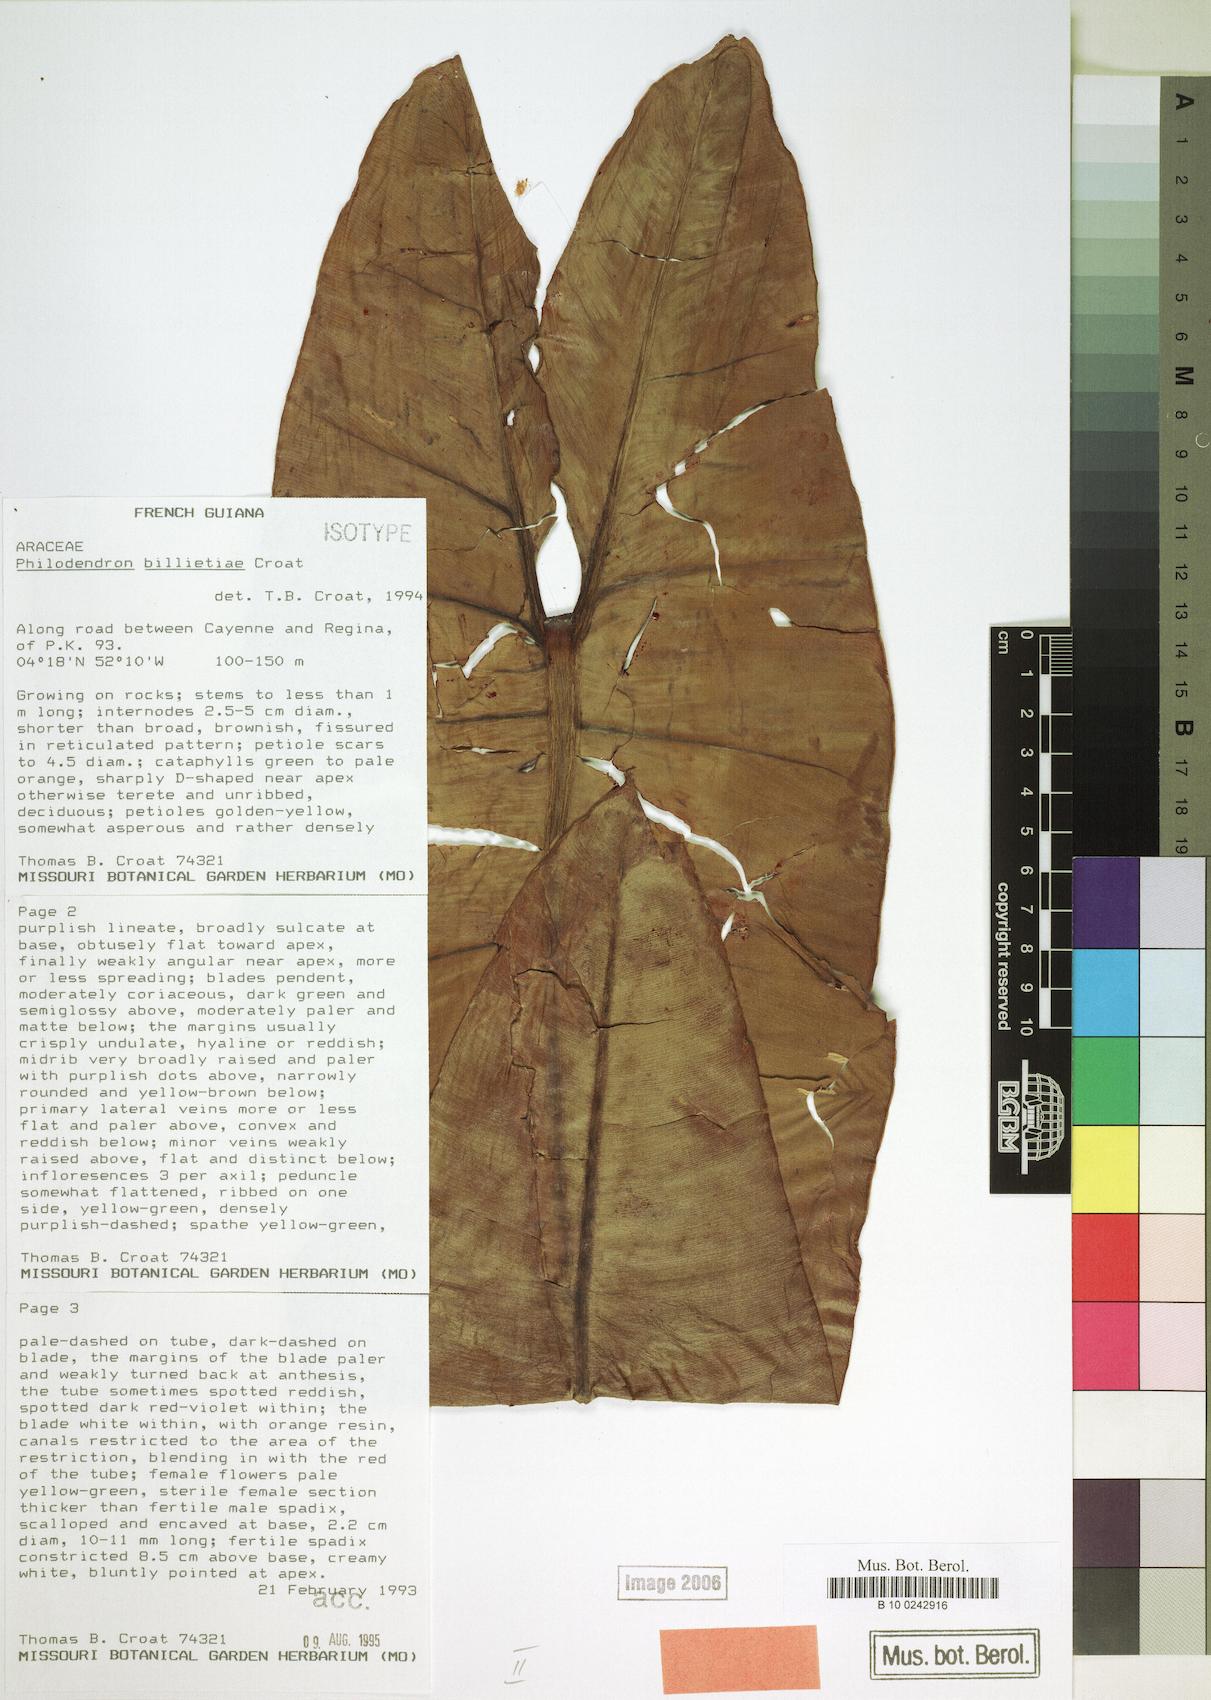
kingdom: Plantae
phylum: Tracheophyta
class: Liliopsida
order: Alismatales
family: Araceae
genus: Philodendron
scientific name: Philodendron billietiae
